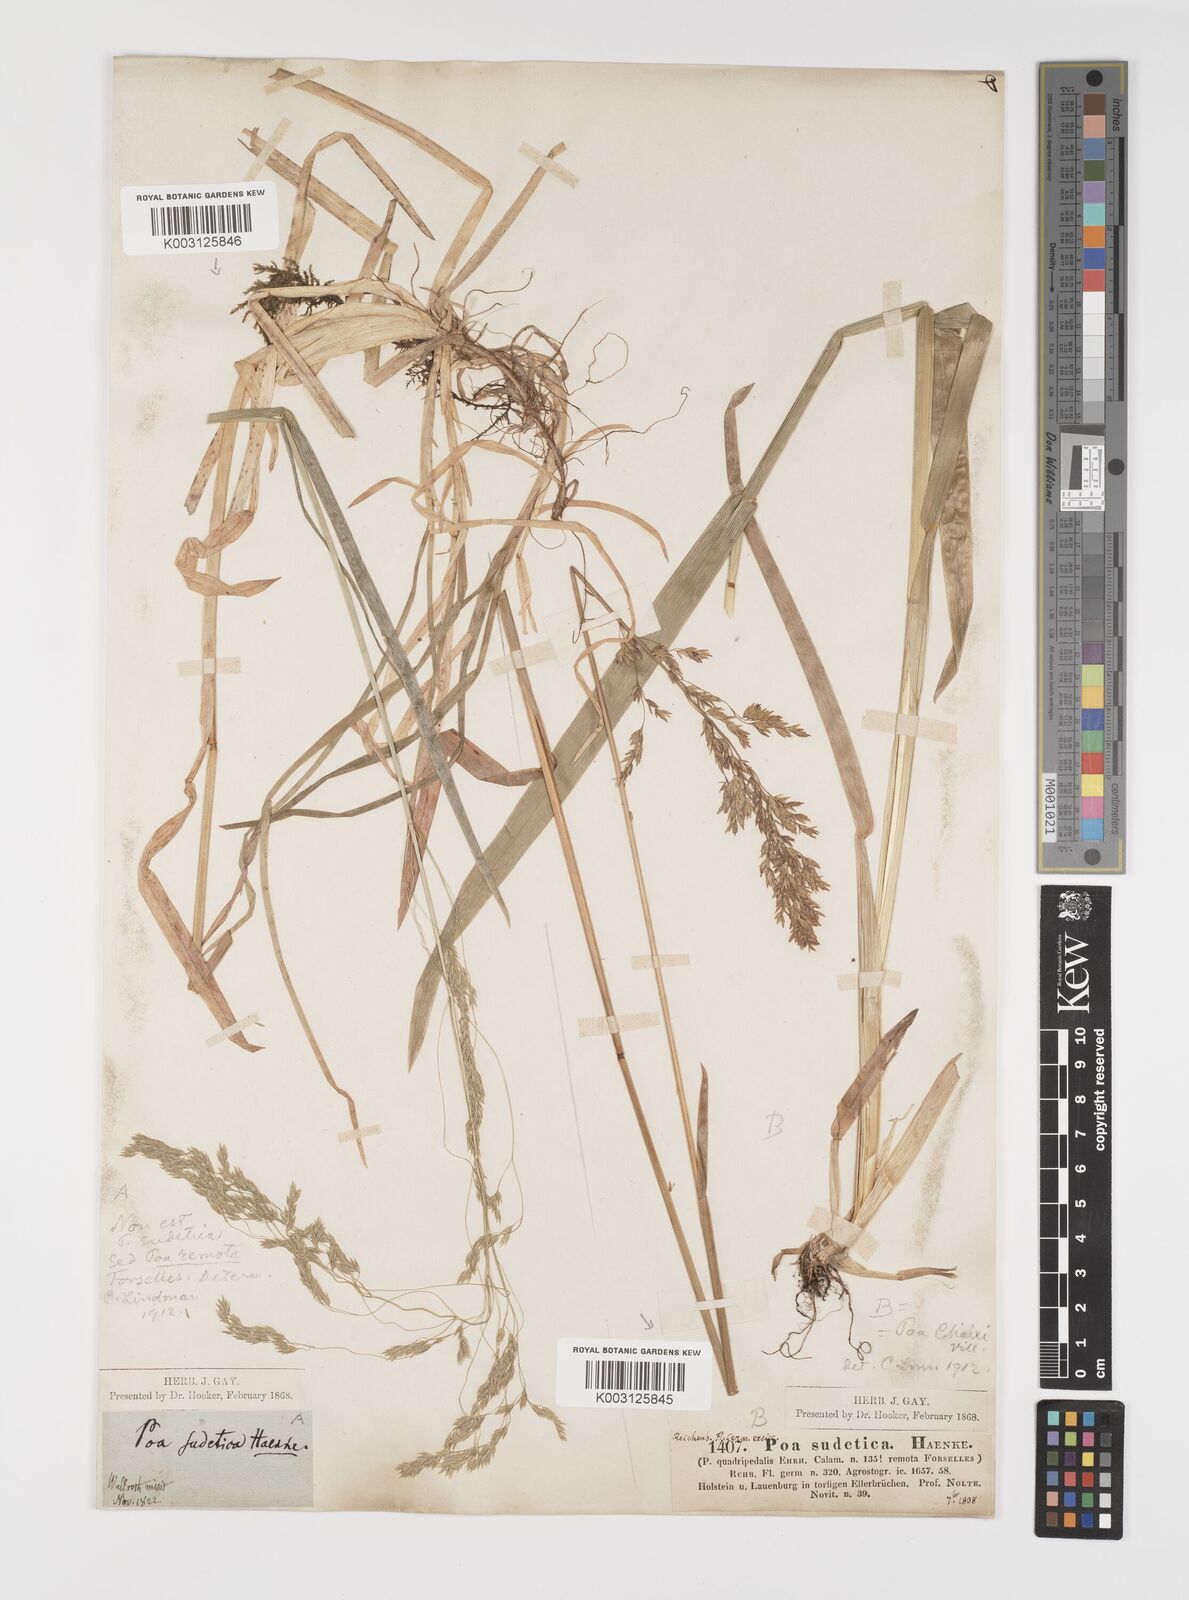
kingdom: Plantae
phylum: Tracheophyta
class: Liliopsida
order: Poales
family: Poaceae
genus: Poa
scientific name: Poa remota
